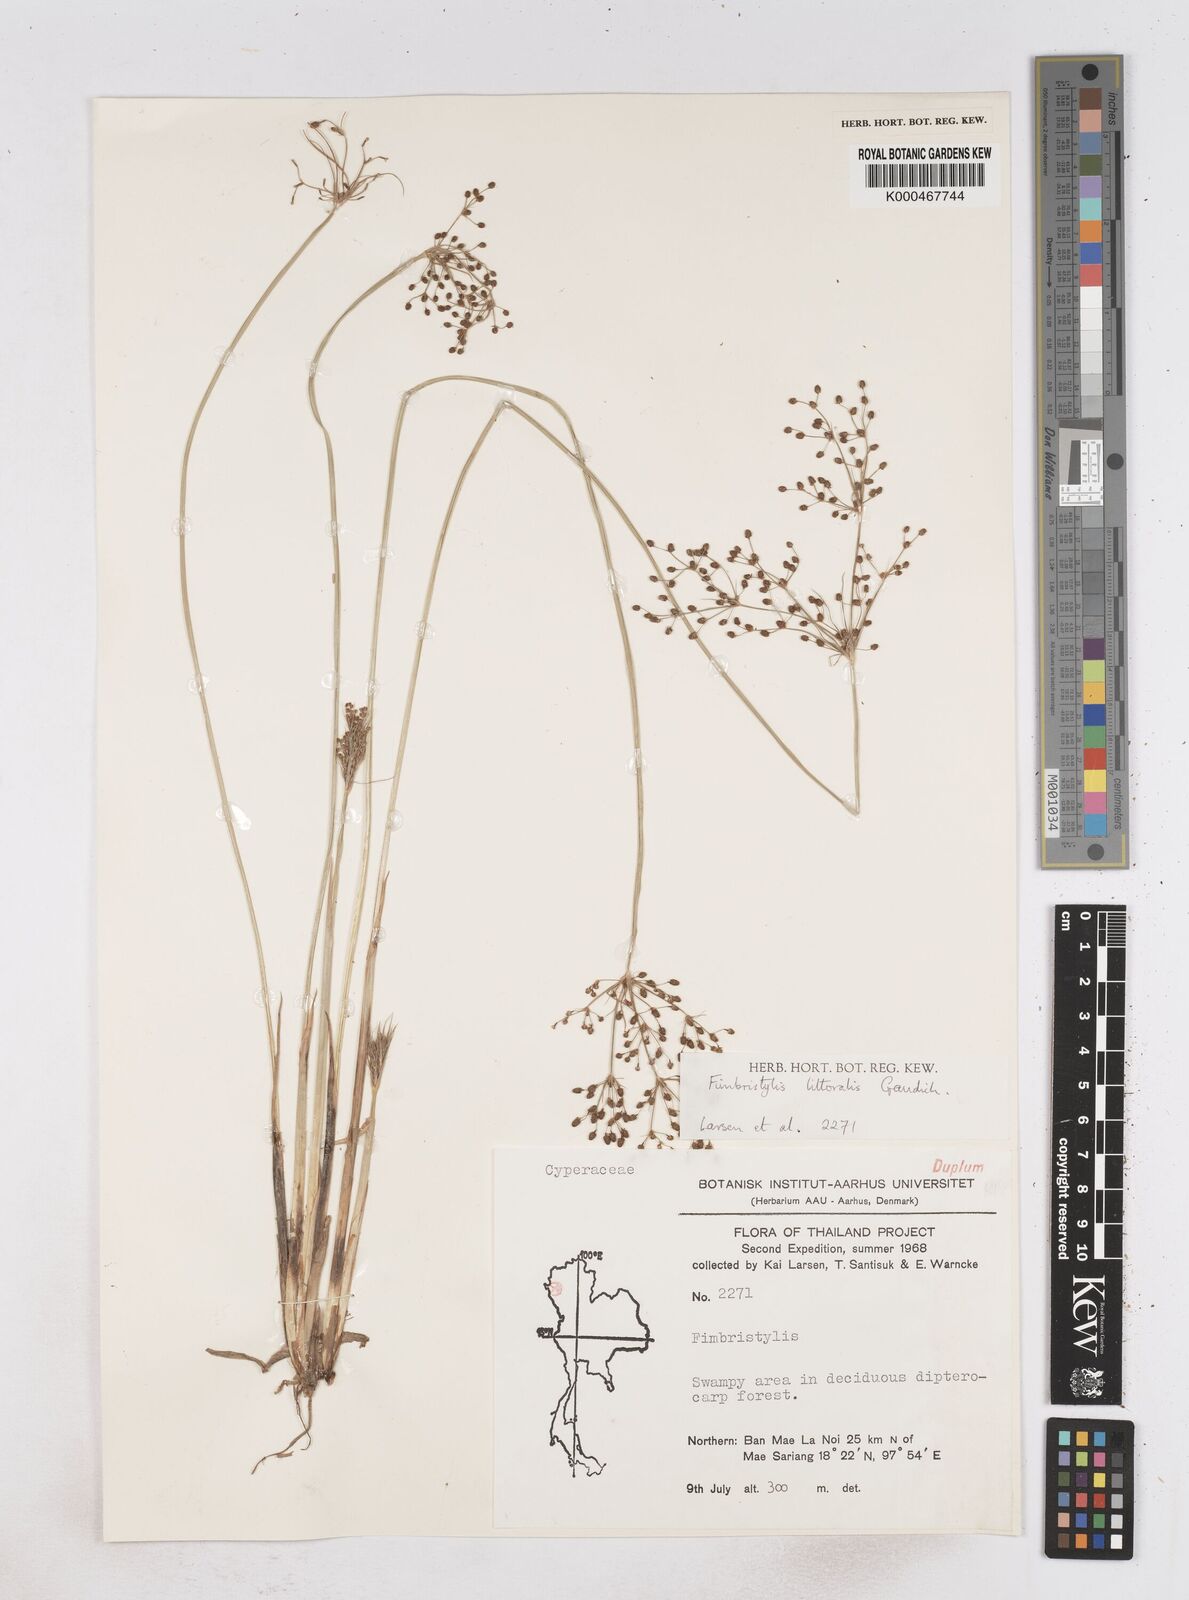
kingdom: Plantae
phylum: Tracheophyta
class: Liliopsida
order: Poales
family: Cyperaceae
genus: Fimbristylis
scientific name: Fimbristylis quinquangularis
